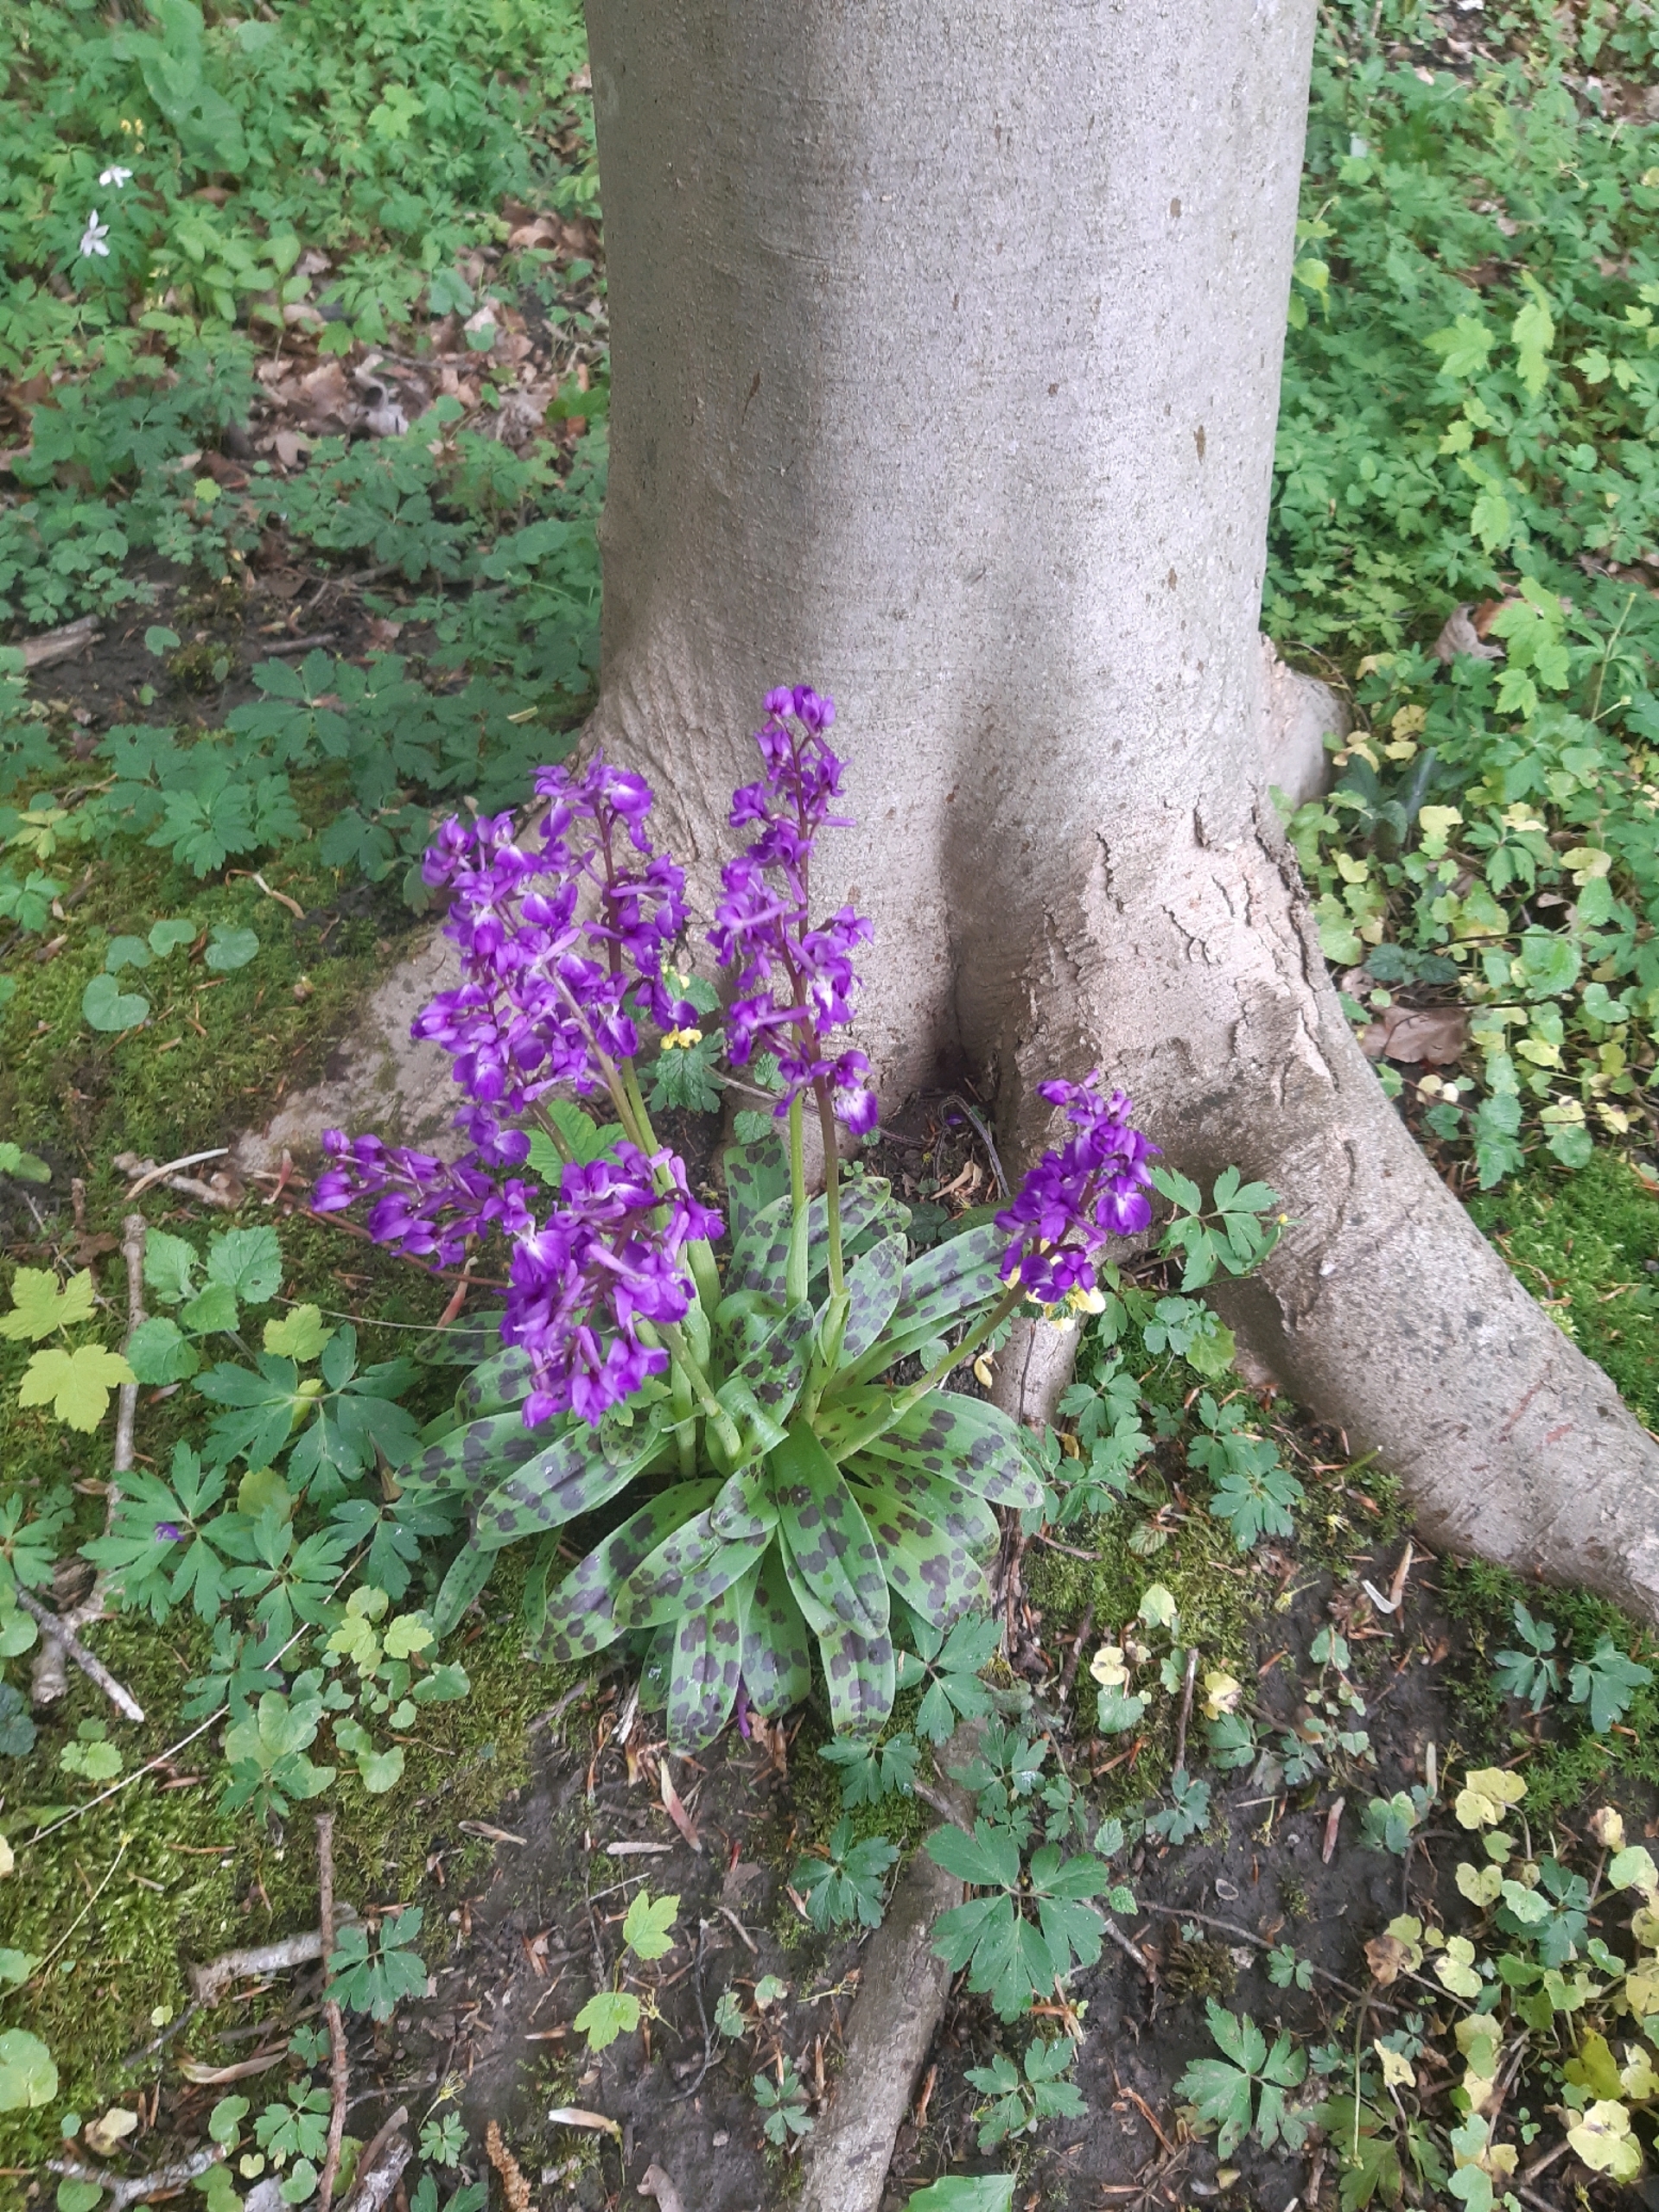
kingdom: Plantae
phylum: Tracheophyta
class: Liliopsida
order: Asparagales
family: Orchidaceae
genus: Orchis
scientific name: Orchis mascula
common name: Tyndakset gøgeurt
